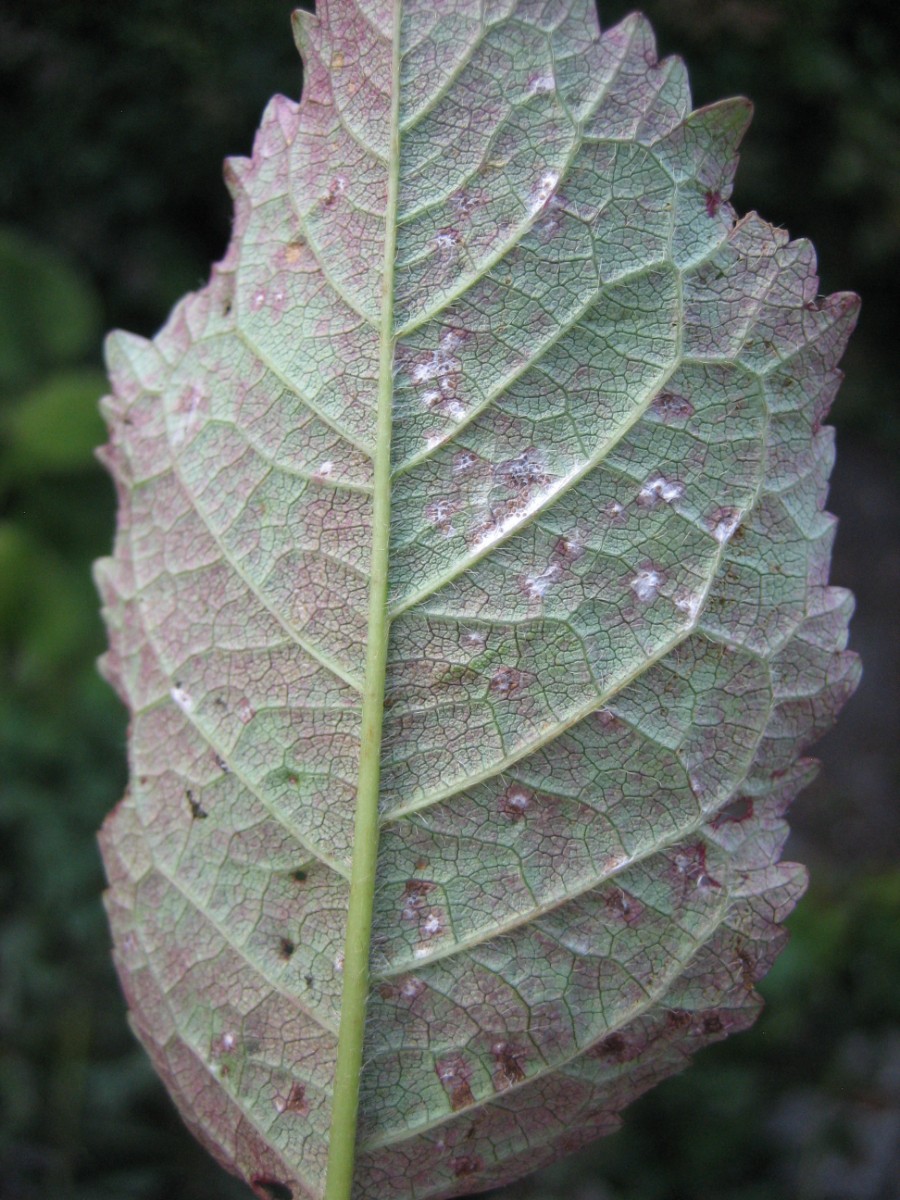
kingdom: Fungi
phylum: Ascomycota
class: Dothideomycetes
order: Mycosphaerellales
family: Mycosphaerellaceae
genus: Mycosphaerella
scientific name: Mycosphaerella ulmi
